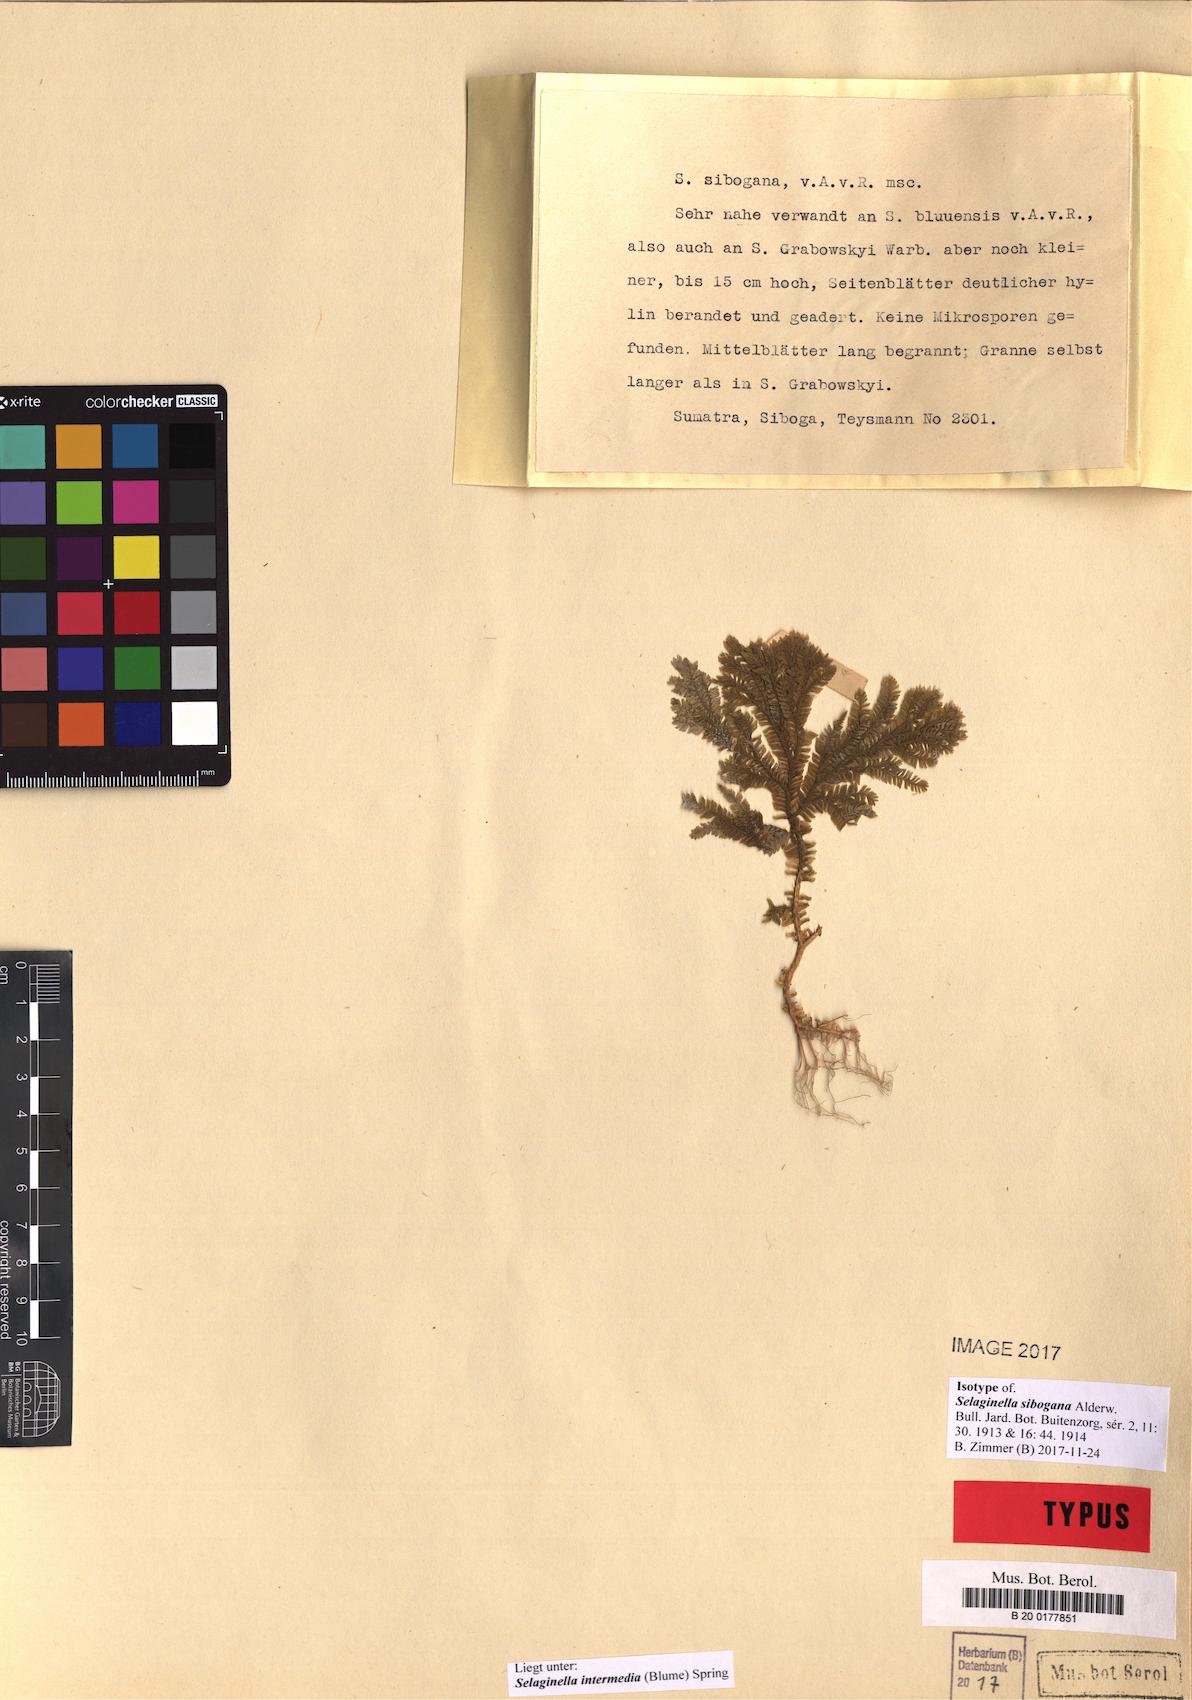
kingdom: Plantae
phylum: Tracheophyta
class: Lycopodiopsida
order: Selaginellales
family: Selaginellaceae
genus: Selaginella
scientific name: Selaginella intermedia
